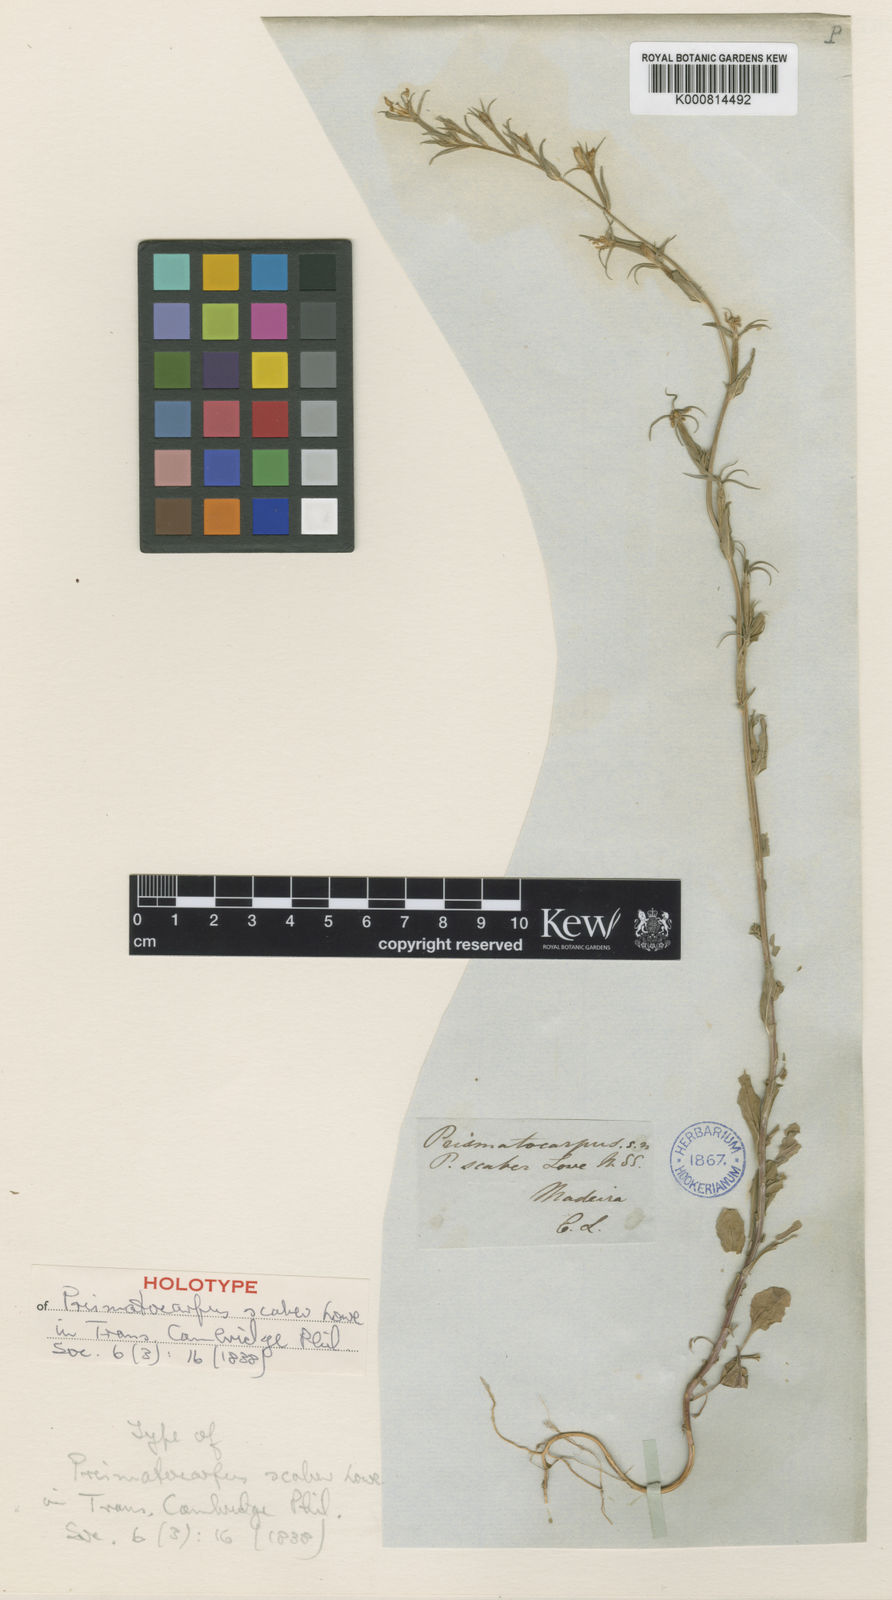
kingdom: Plantae
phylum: Tracheophyta
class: Magnoliopsida
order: Asterales
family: Campanulaceae
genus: Legousia
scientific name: Legousia falcata
